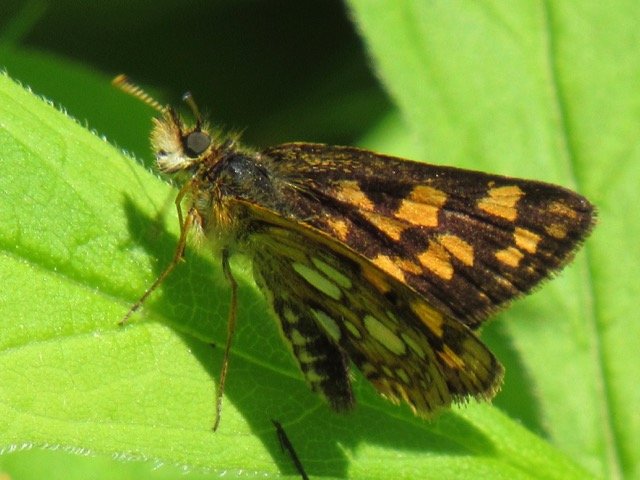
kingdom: Animalia
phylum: Arthropoda
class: Insecta
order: Lepidoptera
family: Hesperiidae
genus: Carterocephalus
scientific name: Carterocephalus palaemon
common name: Chequered Skipper
